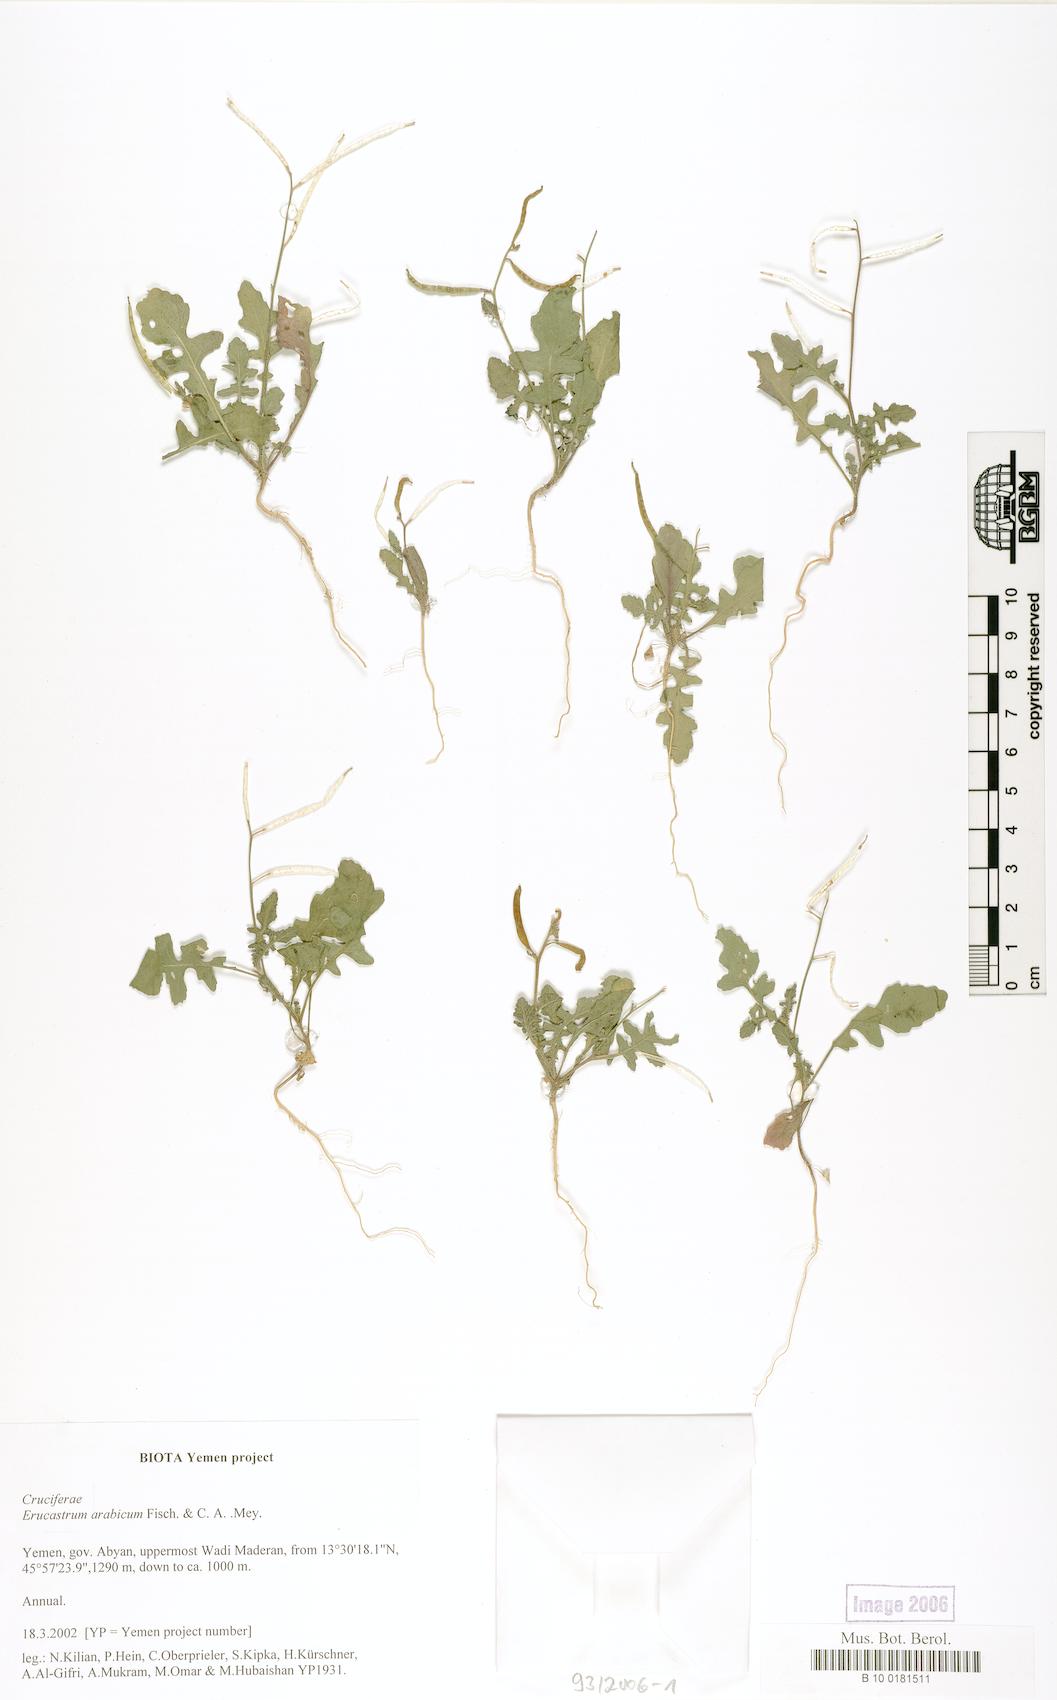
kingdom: Plantae
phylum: Tracheophyta
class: Magnoliopsida
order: Brassicales
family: Brassicaceae
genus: Erucastrum
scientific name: Erucastrum arabicum
